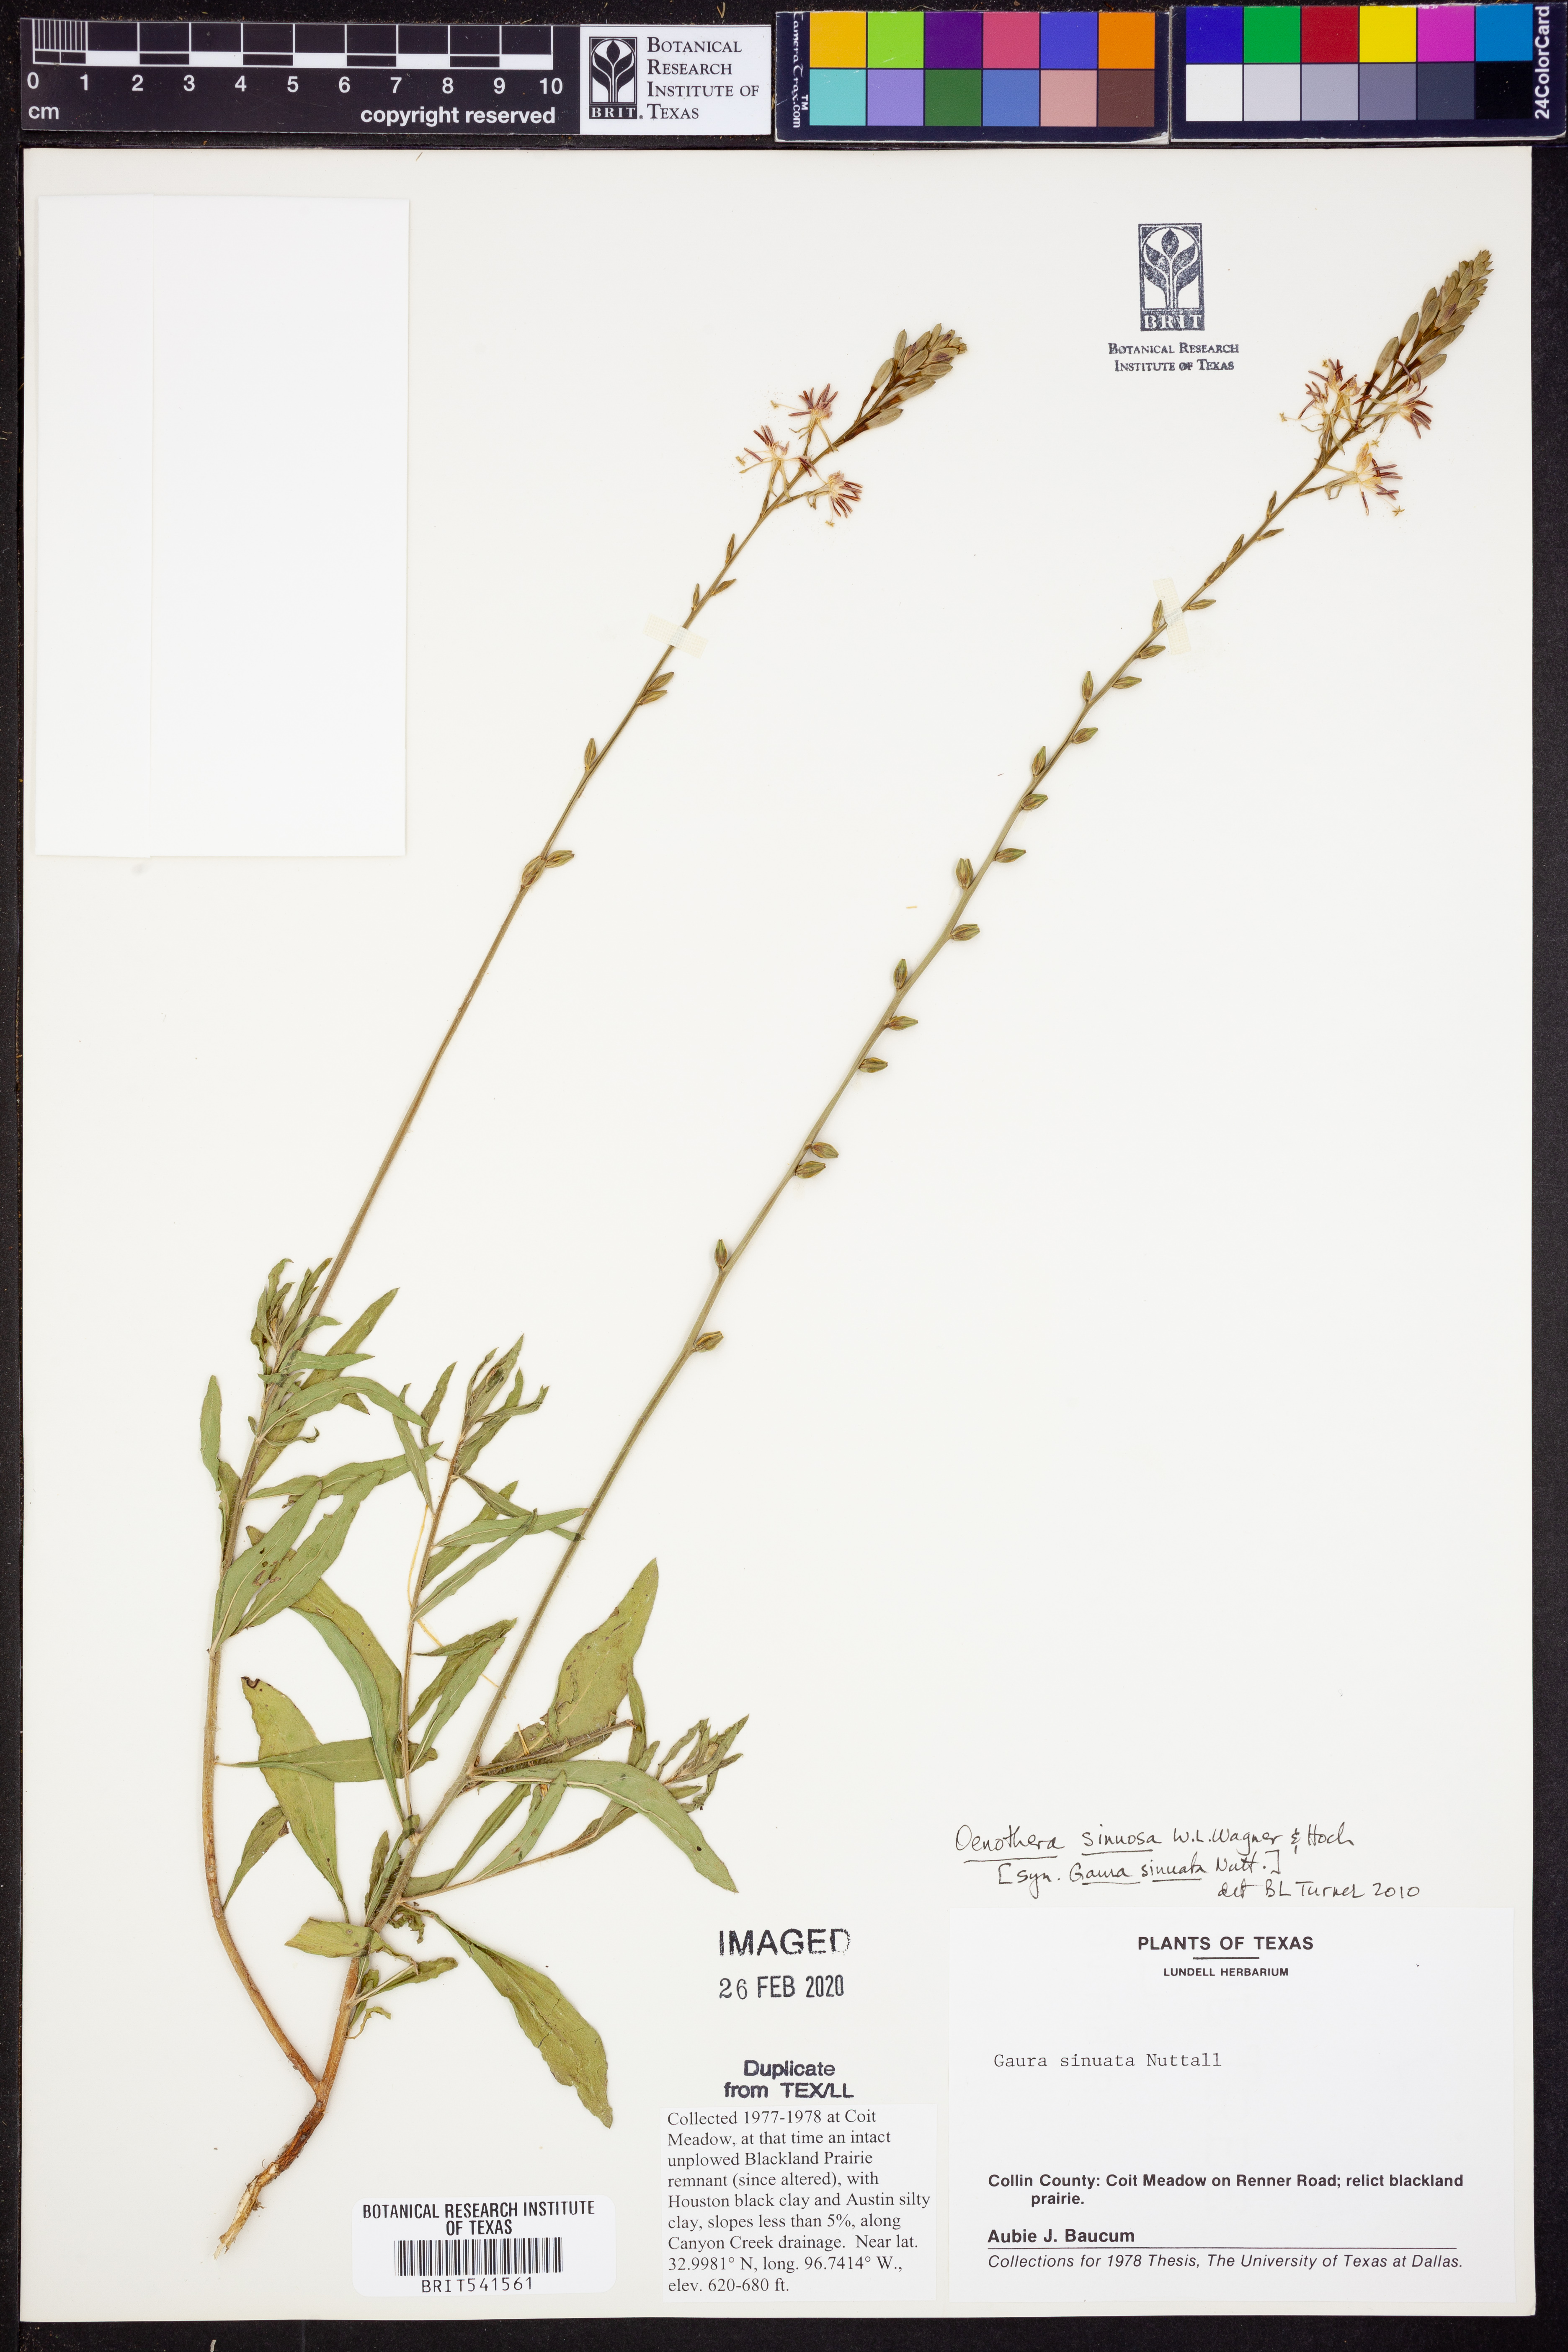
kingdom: Plantae
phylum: Tracheophyta
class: Magnoliopsida
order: Myrtales
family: Onagraceae
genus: Oenothera
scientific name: Oenothera laciniata
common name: Cut-leaved evening-primrose
